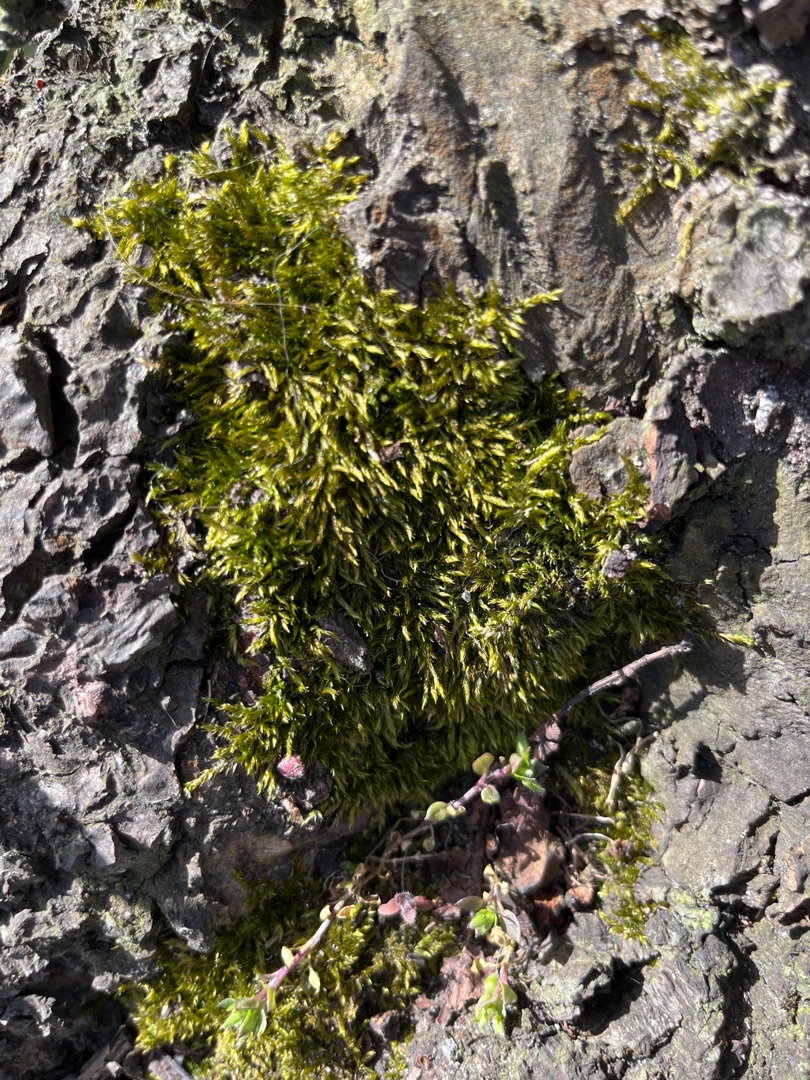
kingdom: Plantae
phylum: Bryophyta
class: Bryopsida
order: Hypnales
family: Hypnaceae
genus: Hypnum
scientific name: Hypnum
